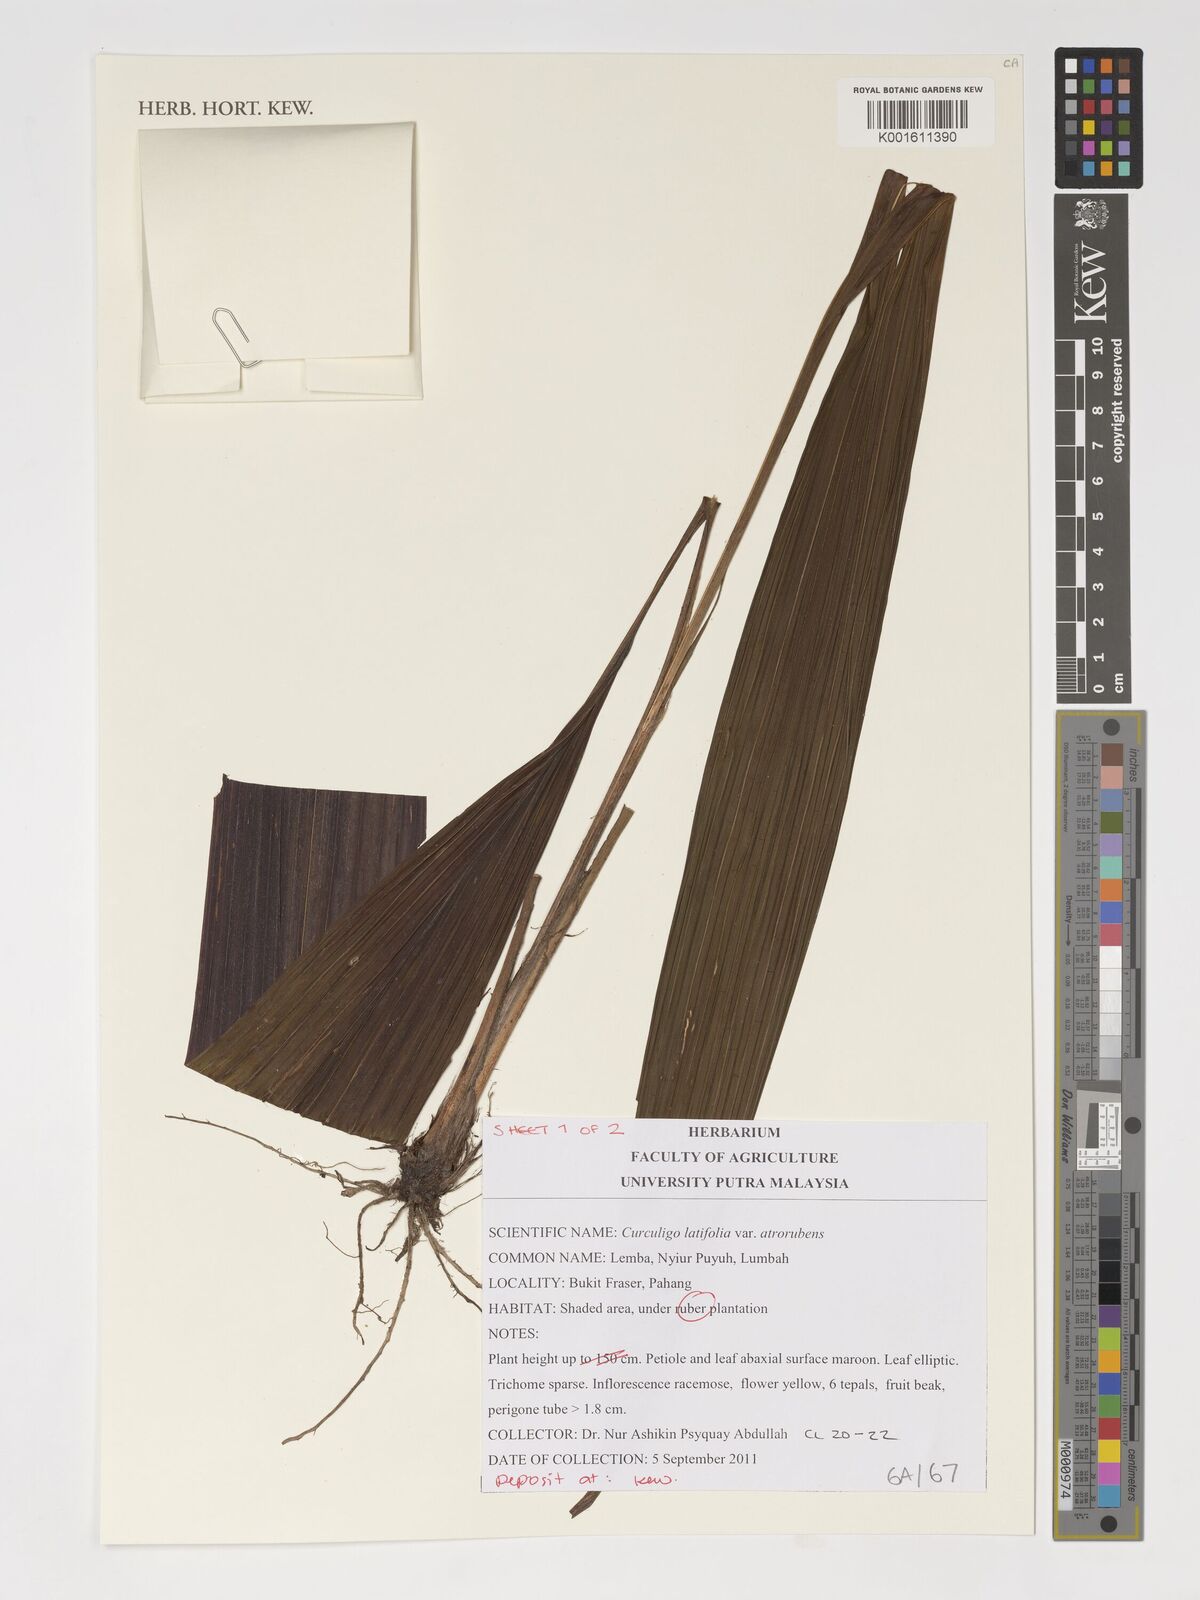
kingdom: Plantae
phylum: Tracheophyta
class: Liliopsida
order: Asparagales
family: Hypoxidaceae
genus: Curculigo
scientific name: Curculigo latifolia
